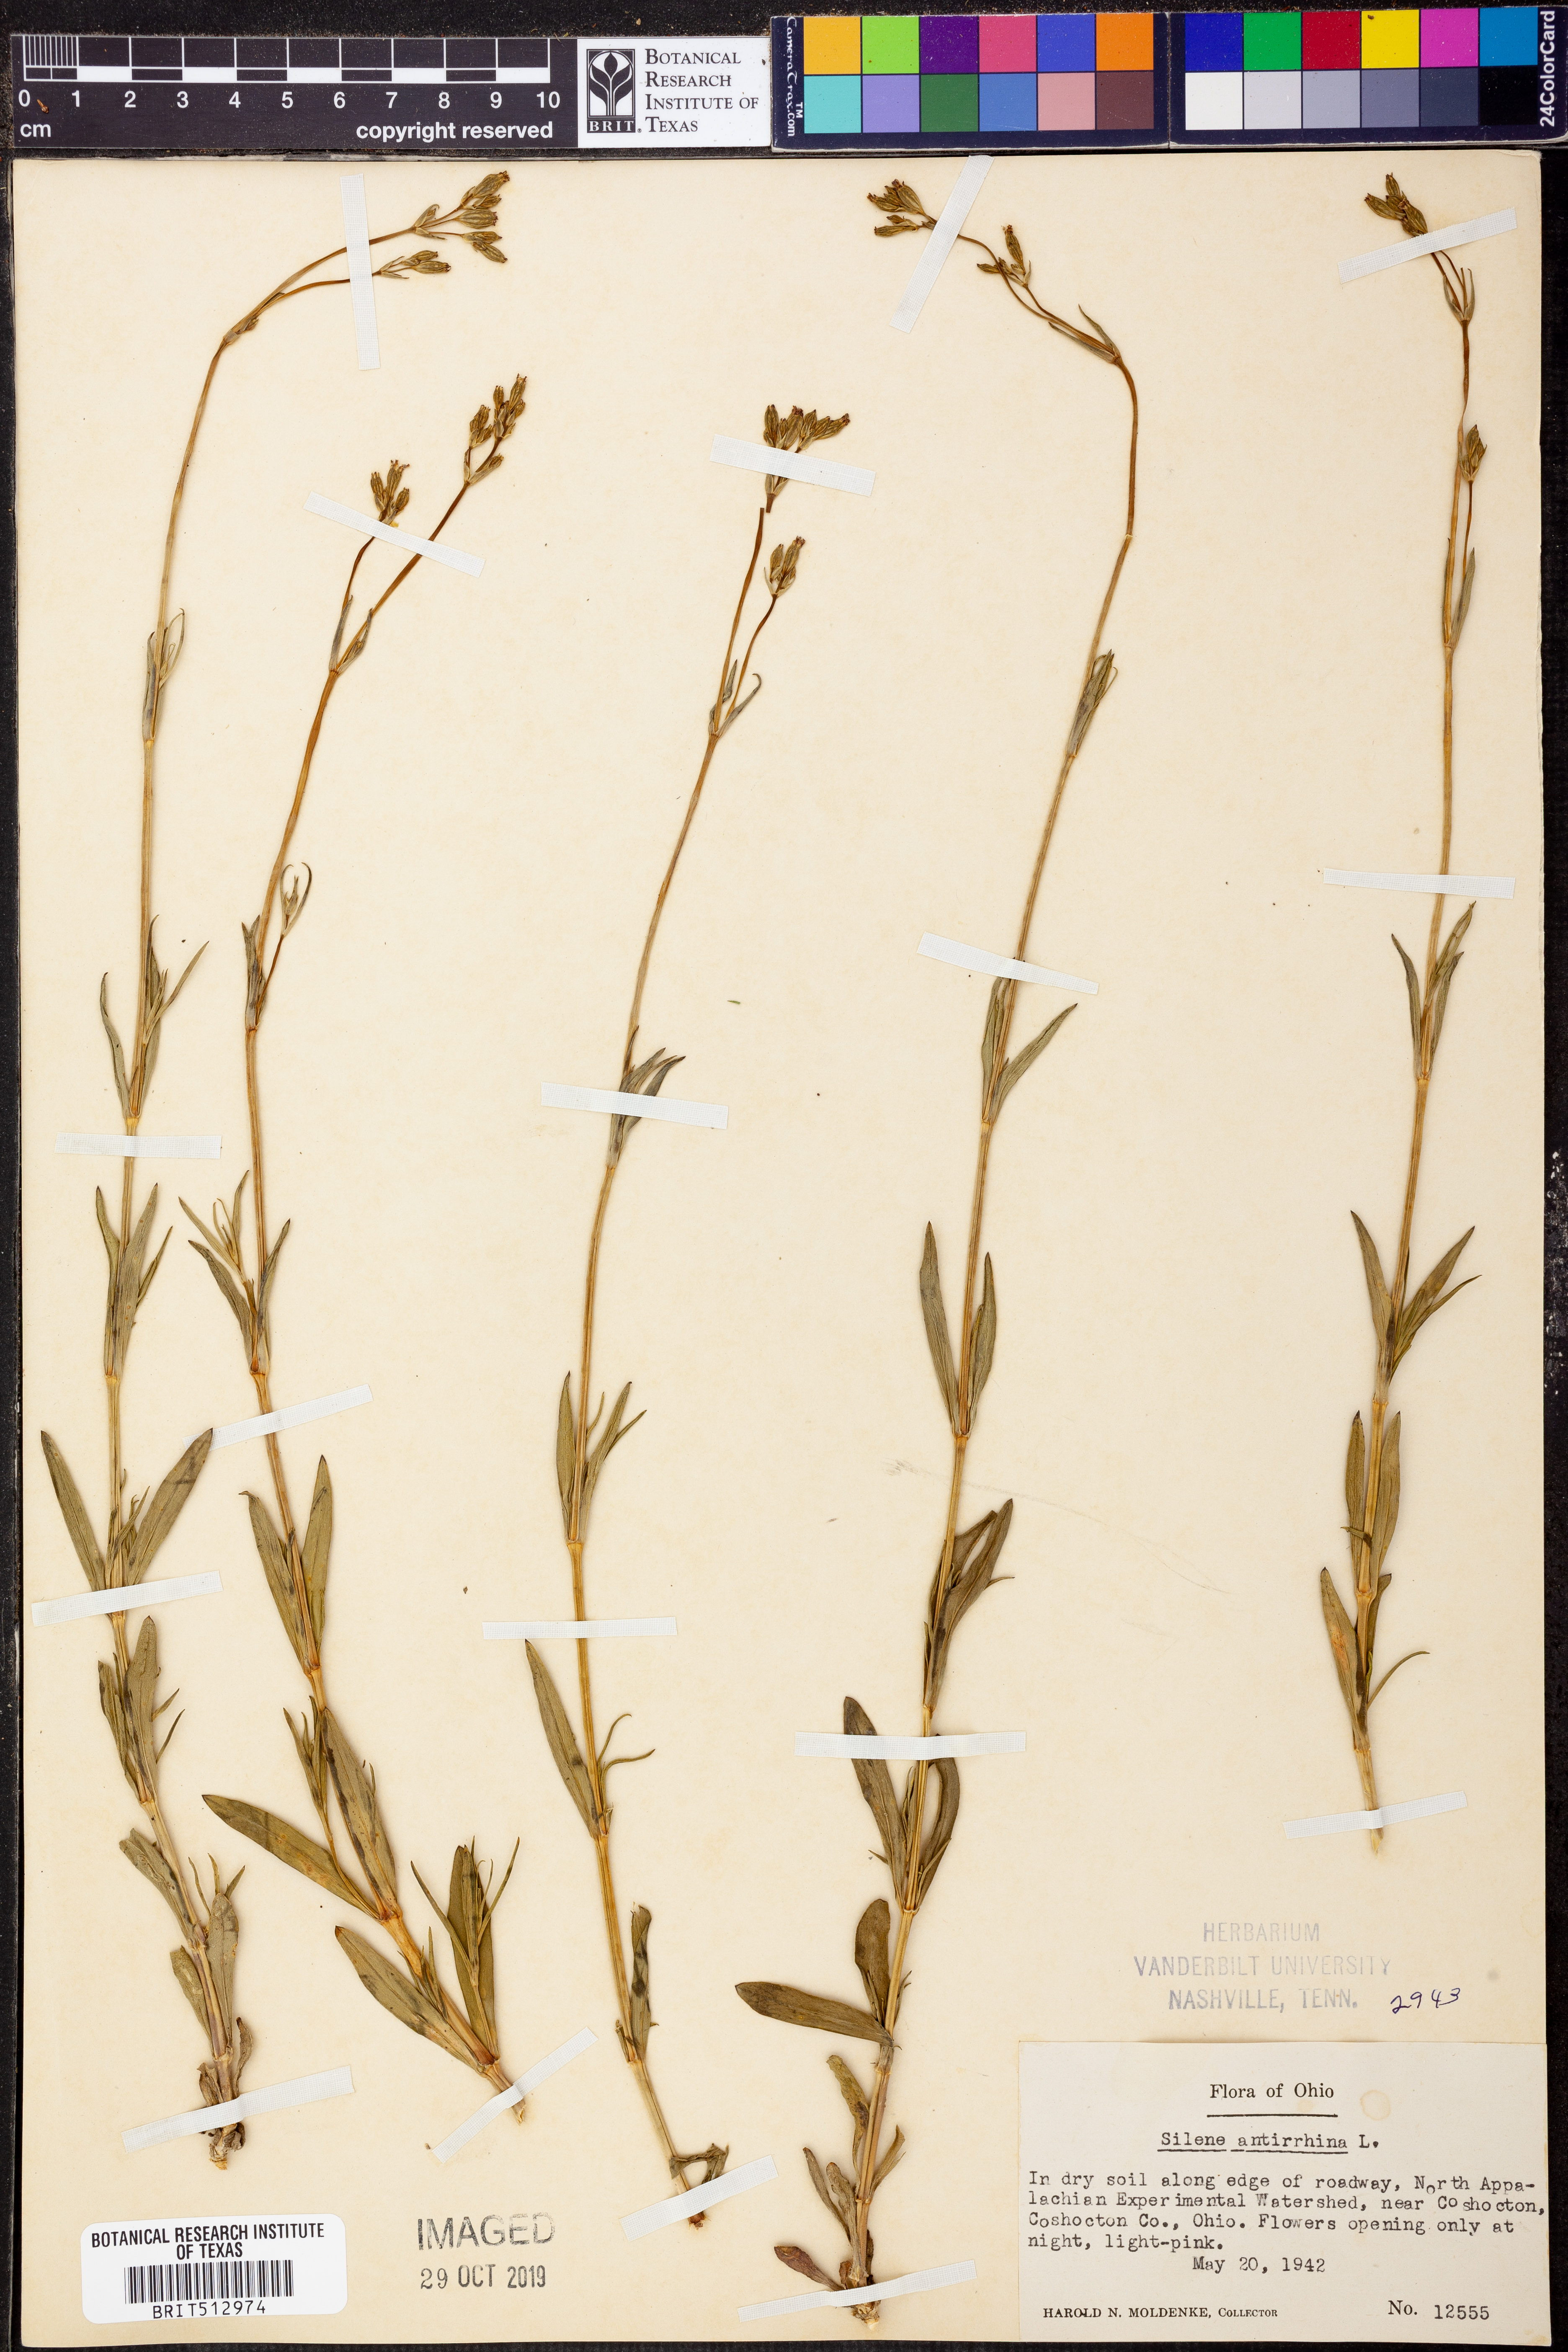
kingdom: Plantae
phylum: Tracheophyta
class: Magnoliopsida
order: Caryophyllales
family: Caryophyllaceae
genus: Silene
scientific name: Silene antirrhina
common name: Sleepy catchfly
